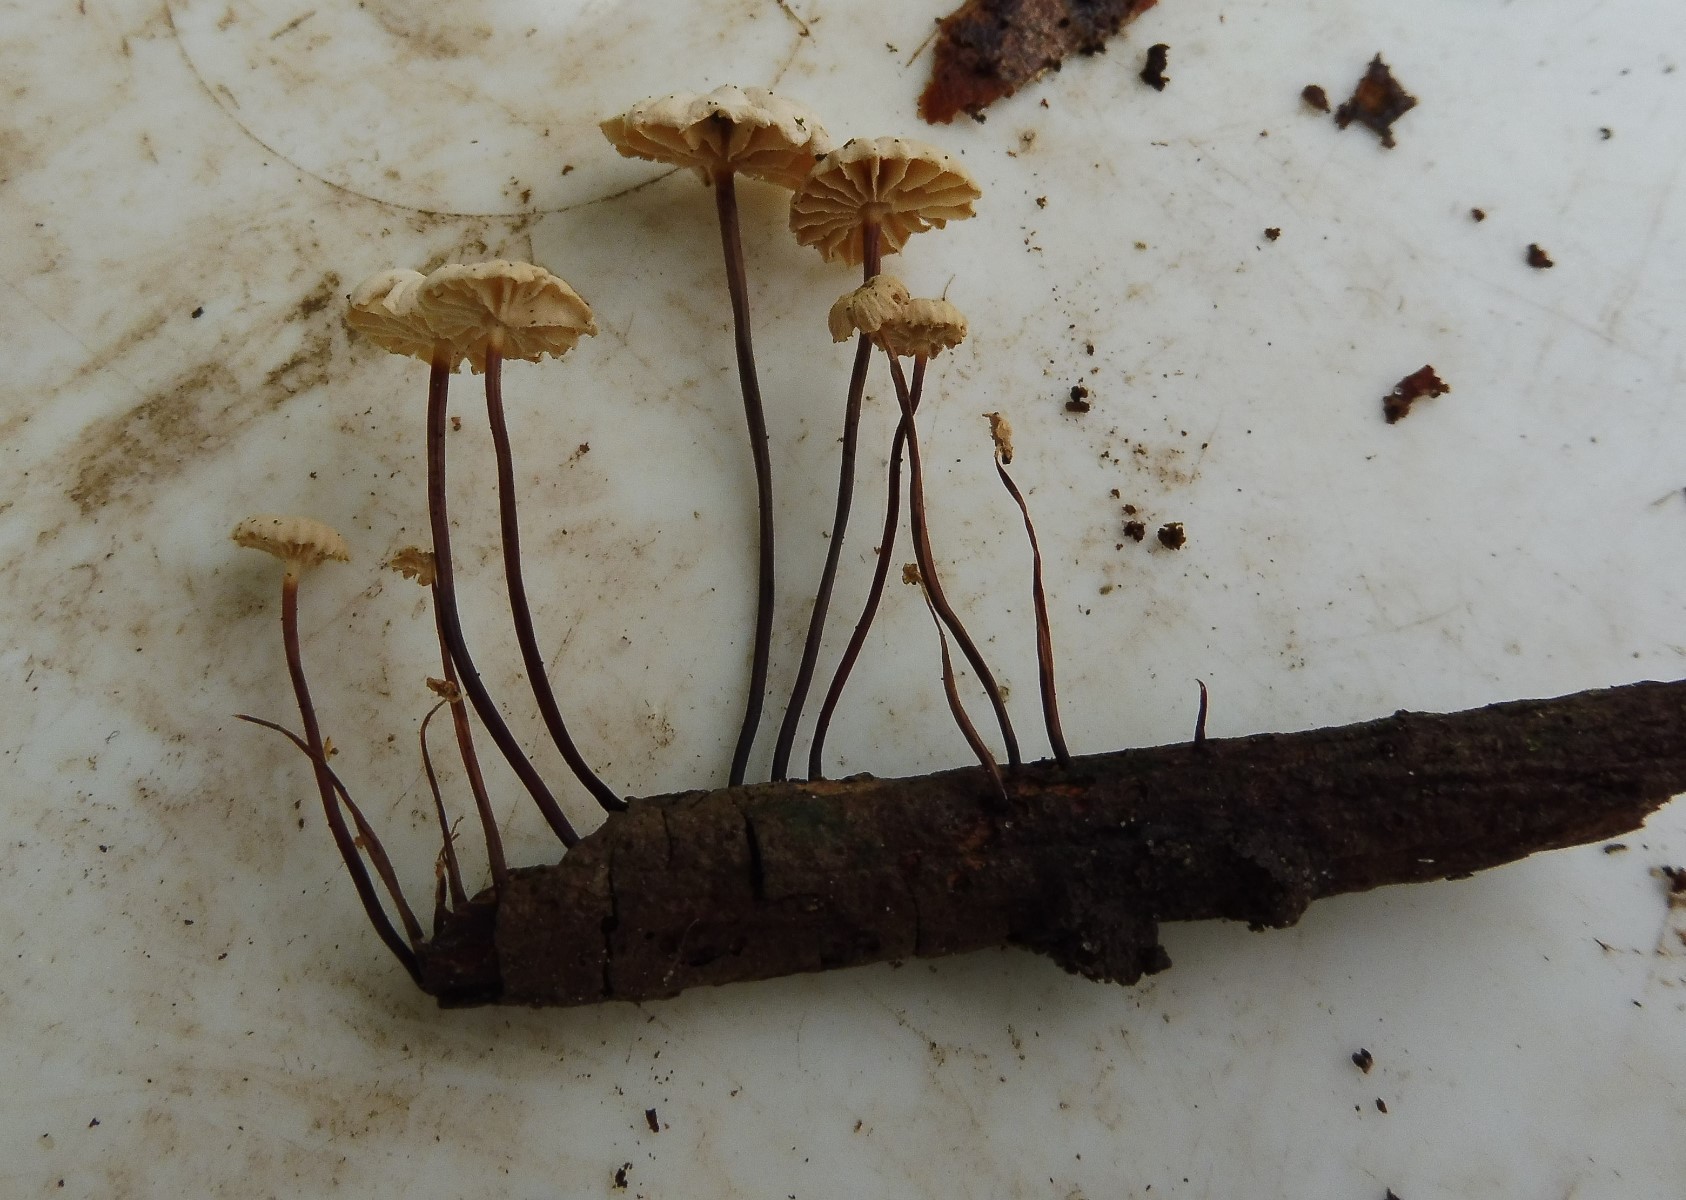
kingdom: Fungi
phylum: Basidiomycota
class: Agaricomycetes
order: Agaricales
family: Marasmiaceae
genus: Marasmius
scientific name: Marasmius rotula
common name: hjul-bruskhat
